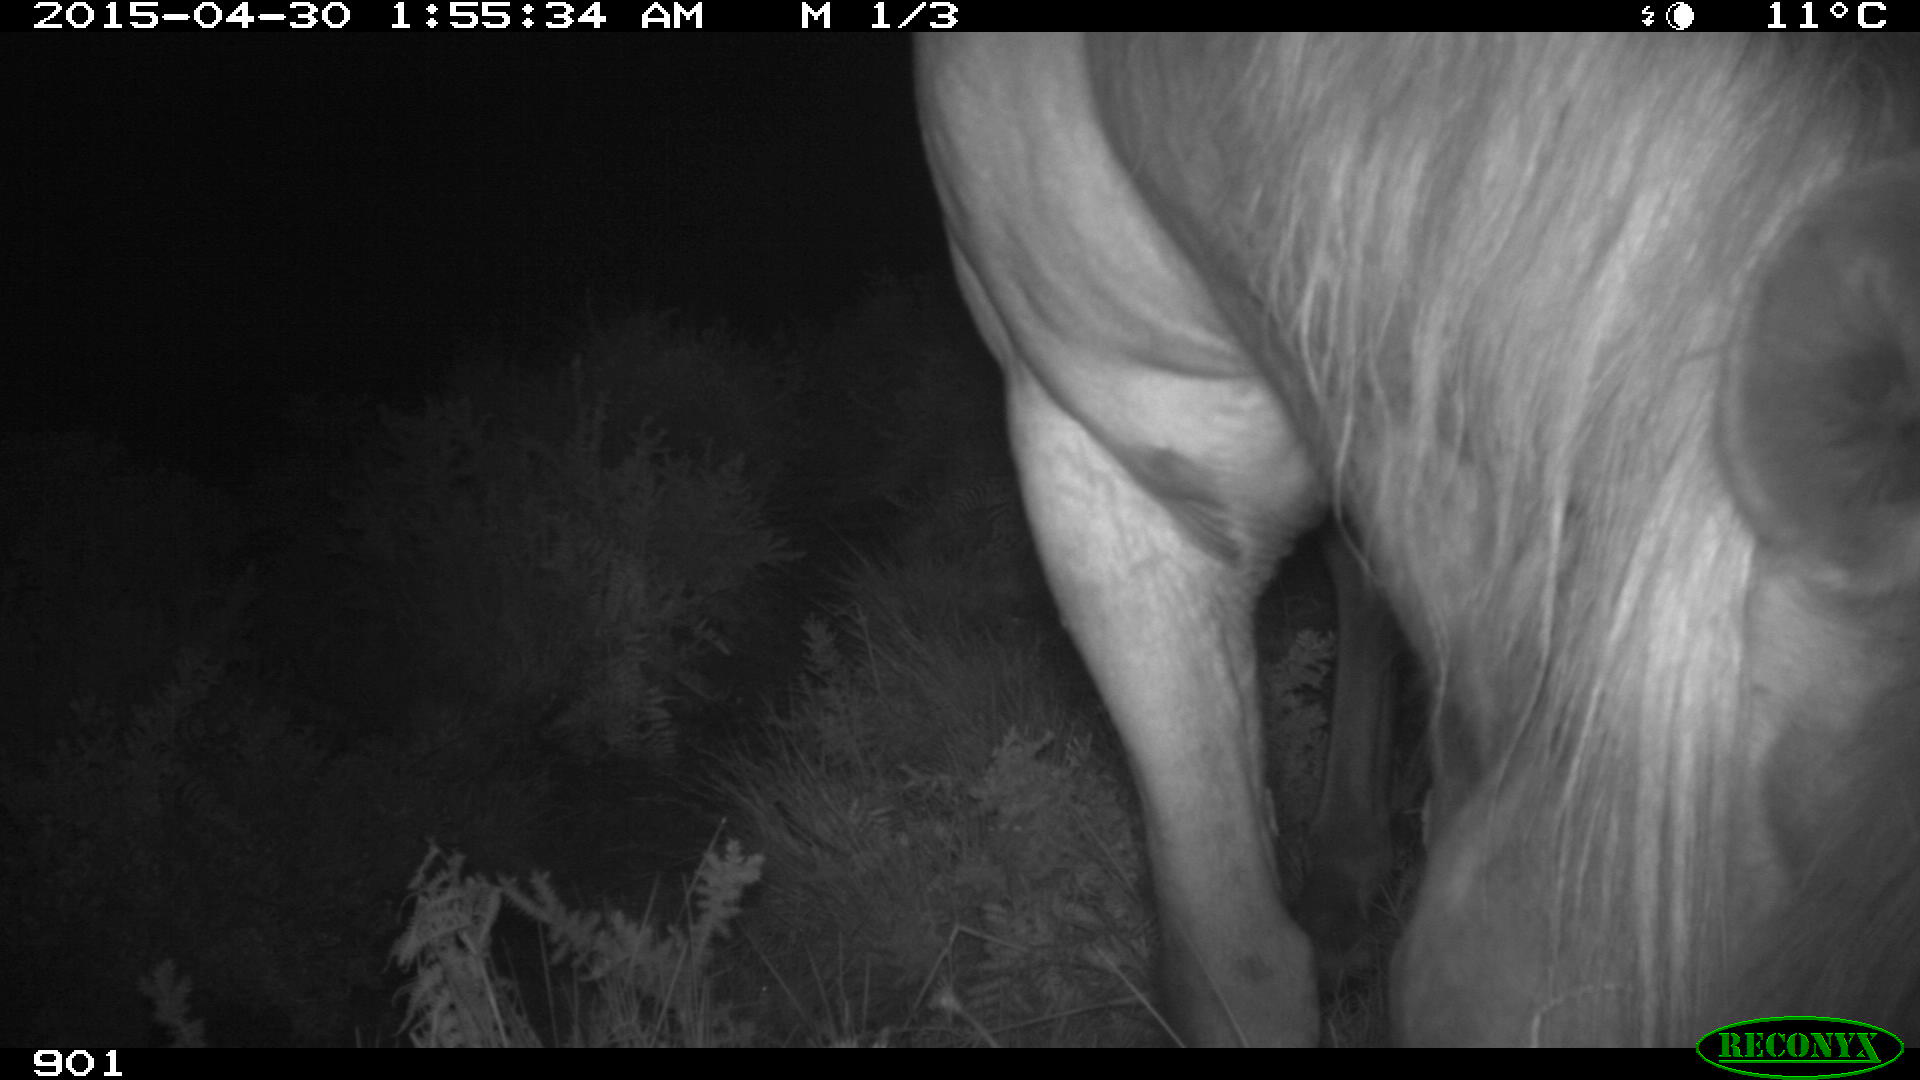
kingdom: Animalia
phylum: Chordata
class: Mammalia
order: Perissodactyla
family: Equidae
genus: Equus
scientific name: Equus caballus
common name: Horse
